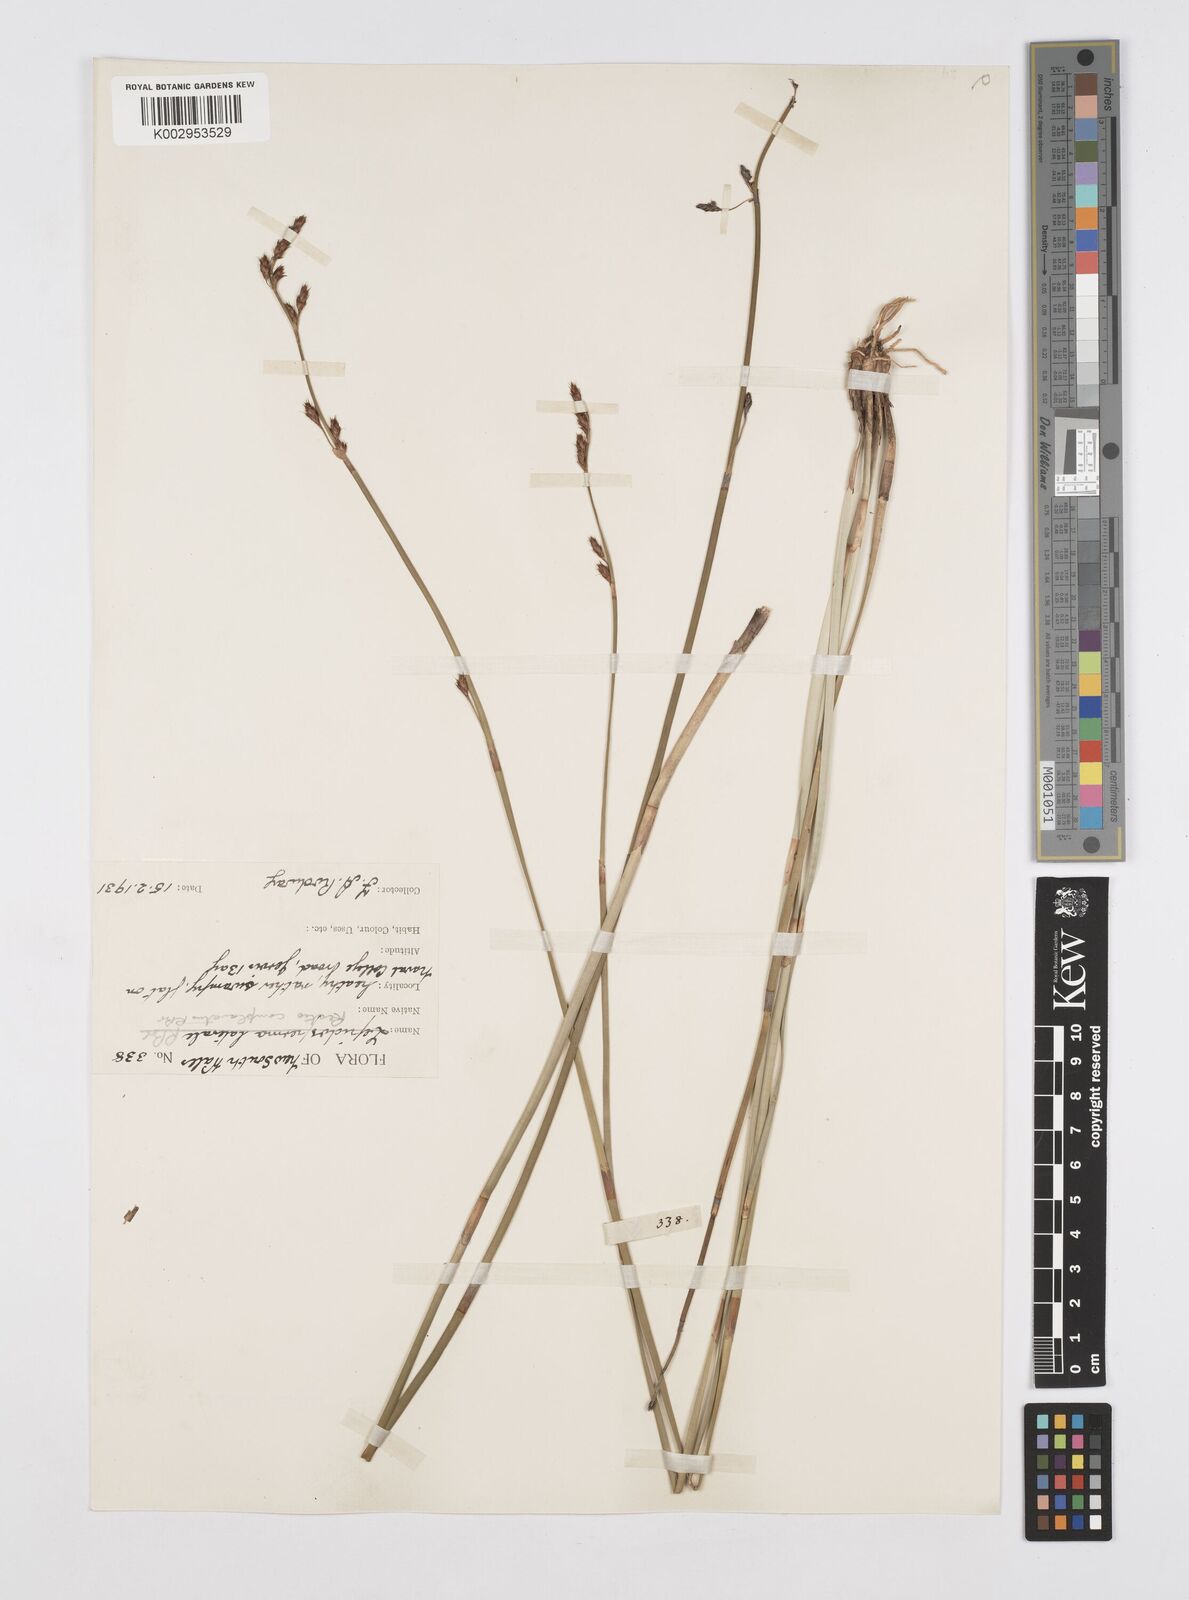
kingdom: Plantae
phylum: Tracheophyta
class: Liliopsida
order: Poales
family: Restionaceae
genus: Eurychorda
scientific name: Eurychorda complanata
